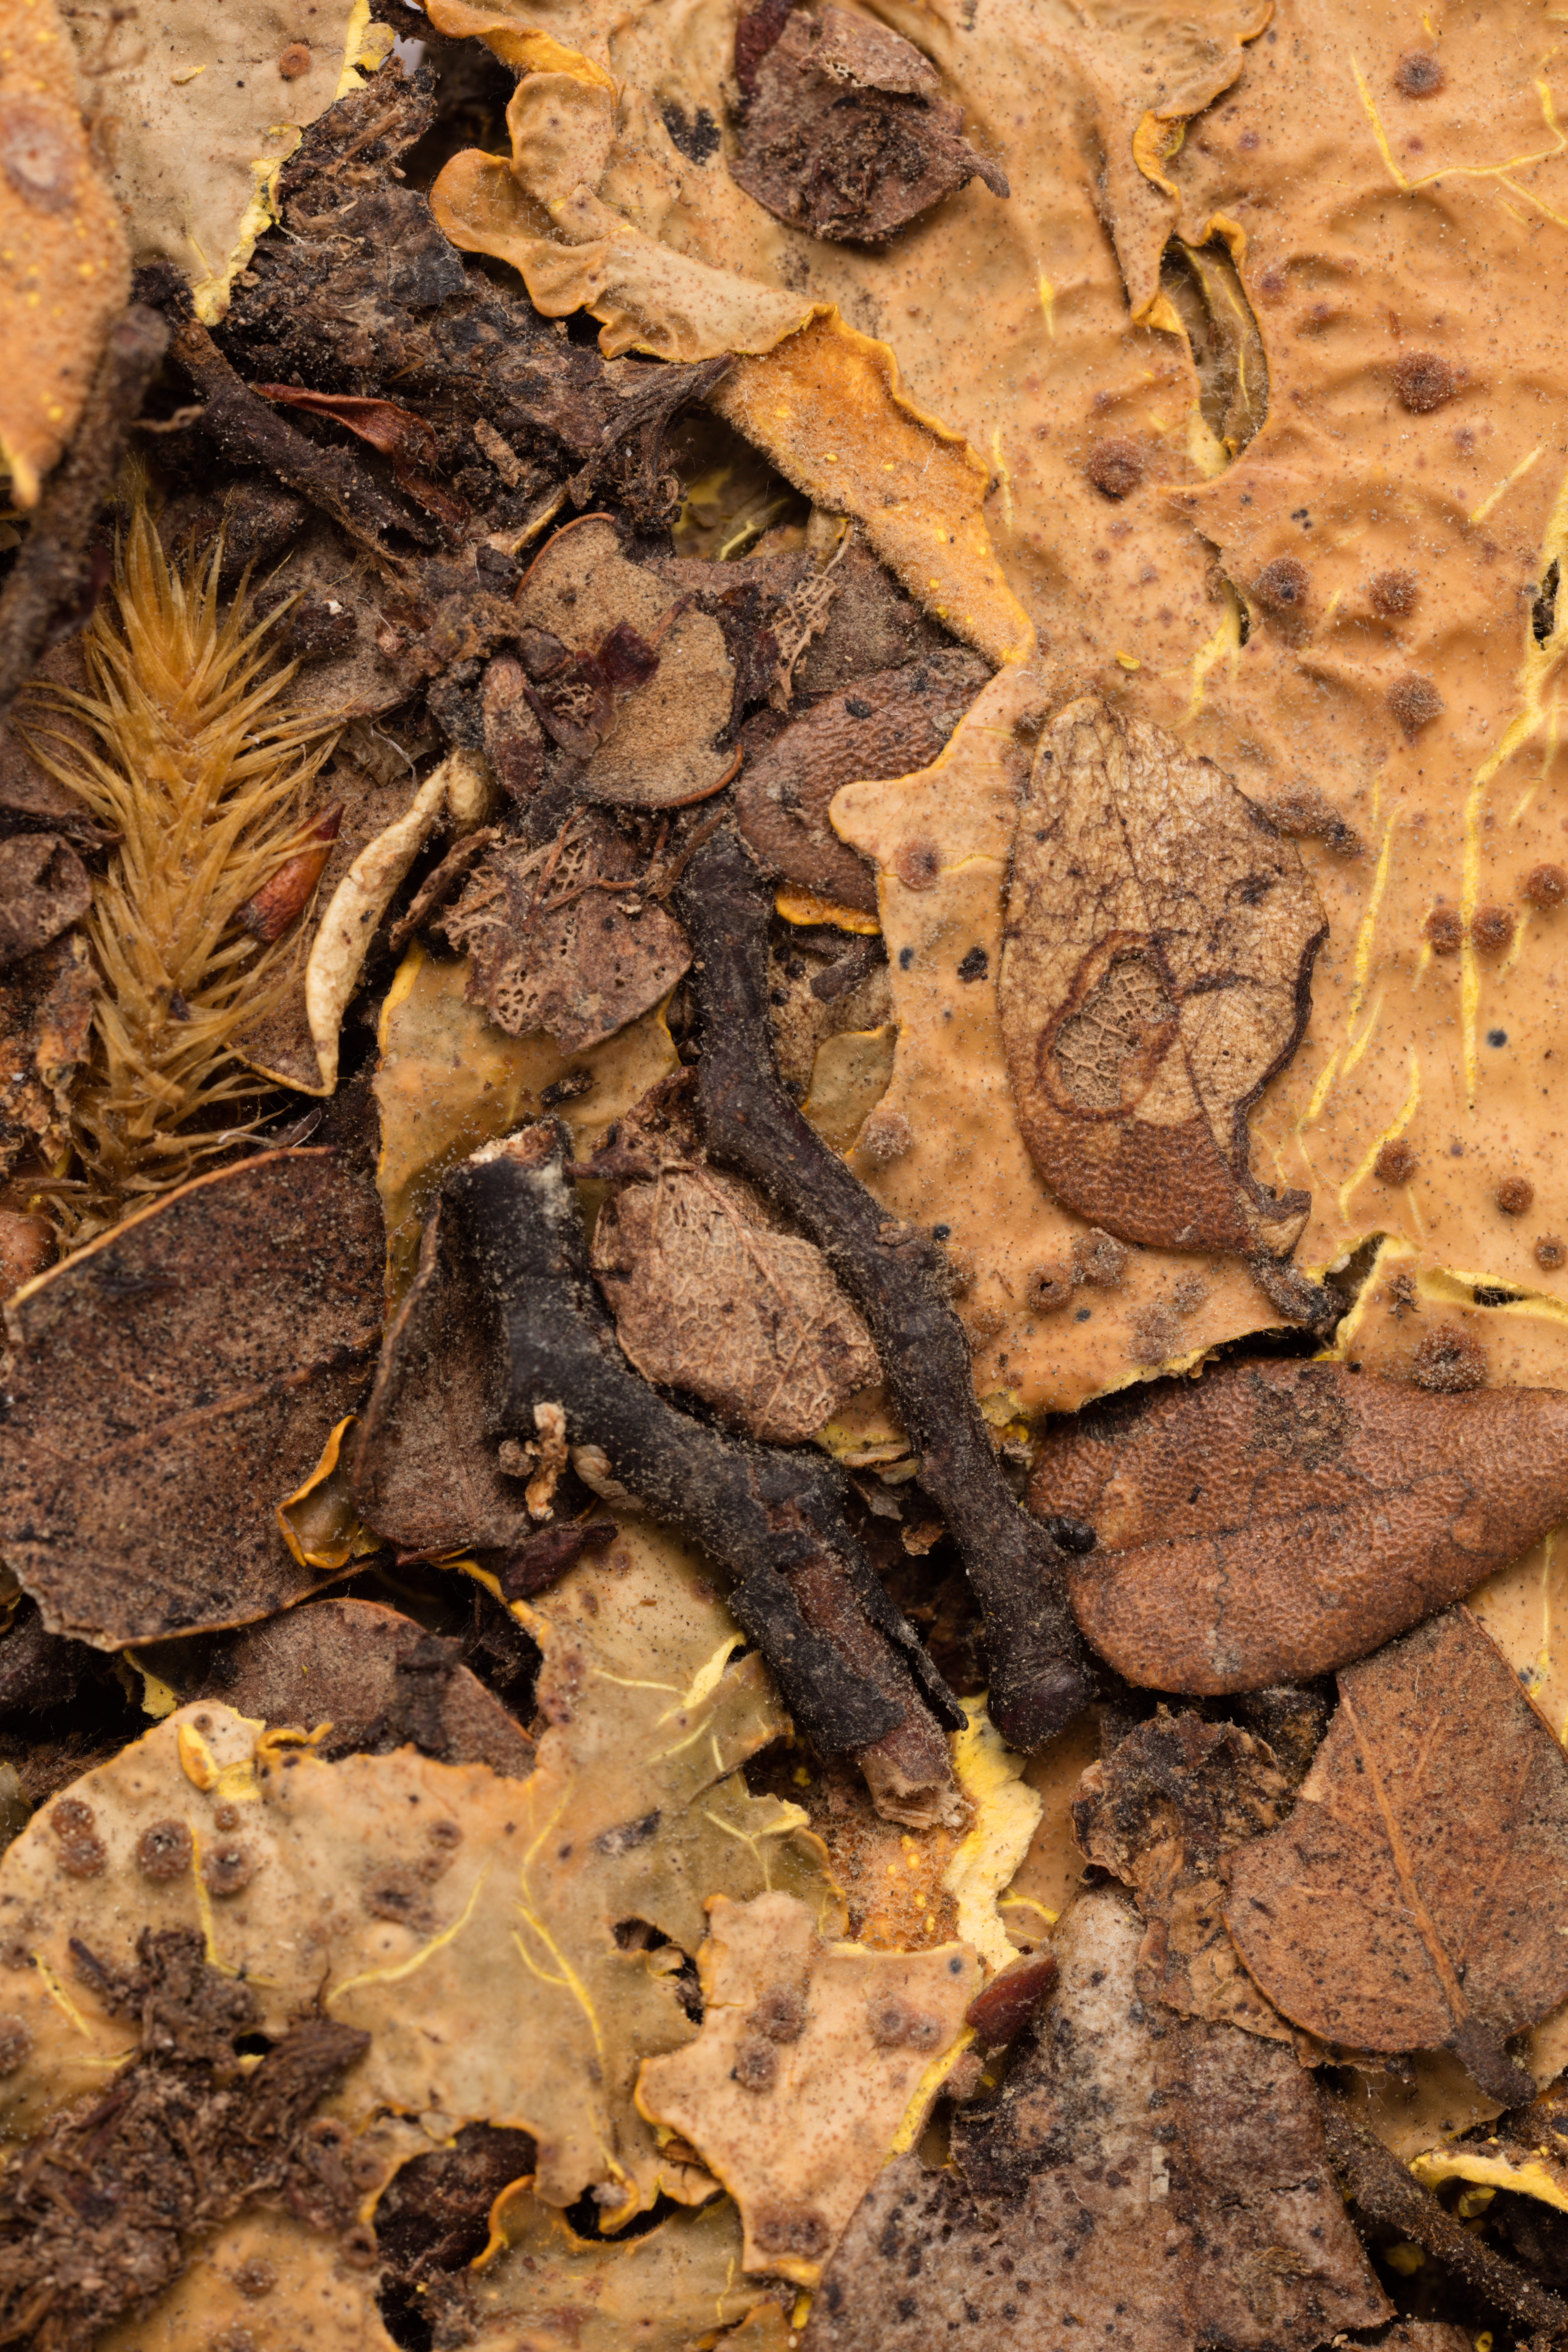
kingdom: Fungi
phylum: Ascomycota
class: Lecanoromycetes
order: Peltigerales
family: Lobariaceae
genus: Podostictina
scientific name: Podostictina berberina
